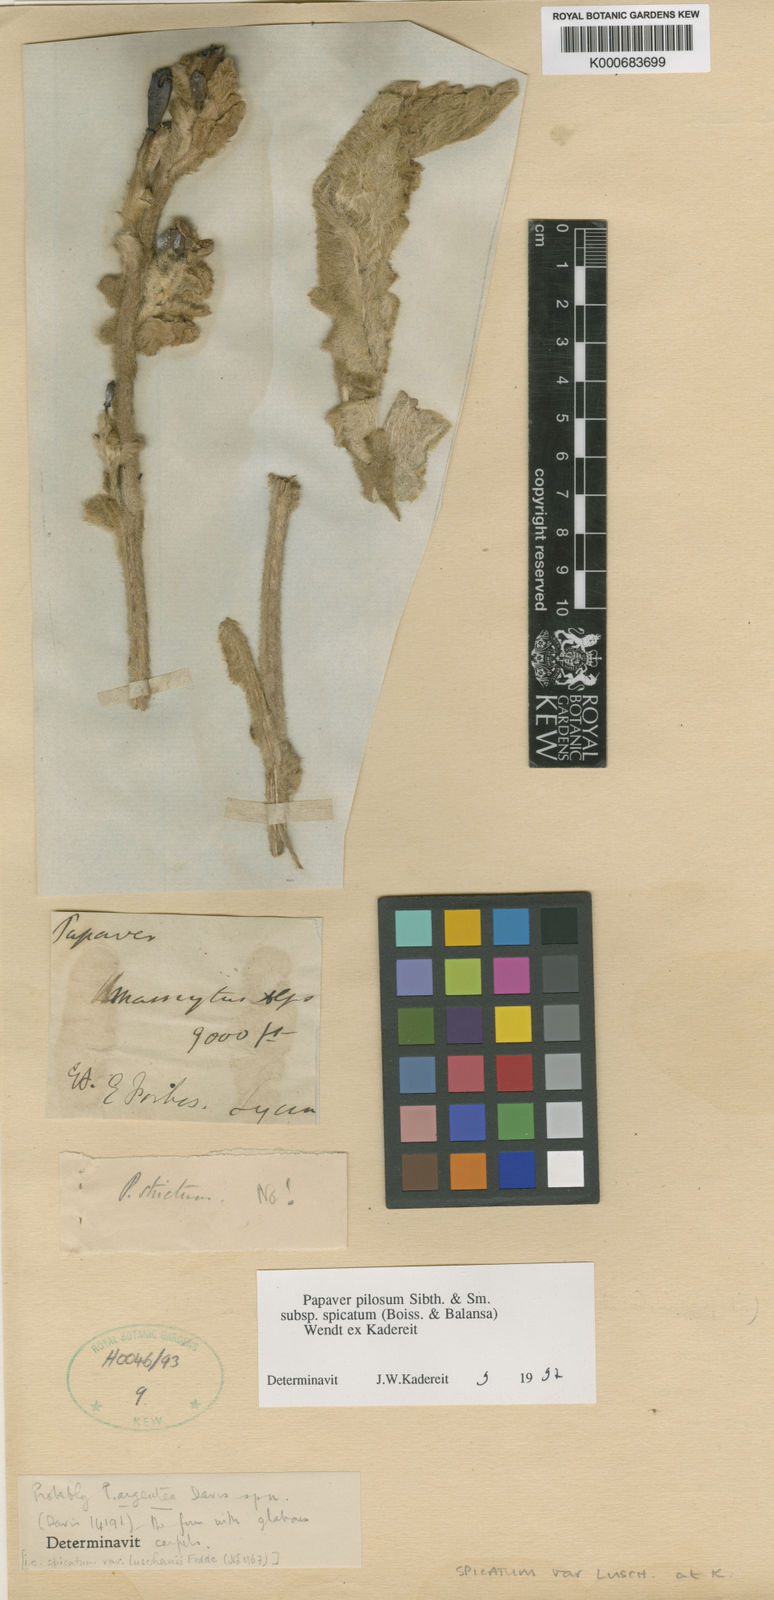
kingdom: Plantae
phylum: Tracheophyta
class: Magnoliopsida
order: Ranunculales
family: Papaveraceae
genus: Papaver
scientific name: Papaver pilosum
